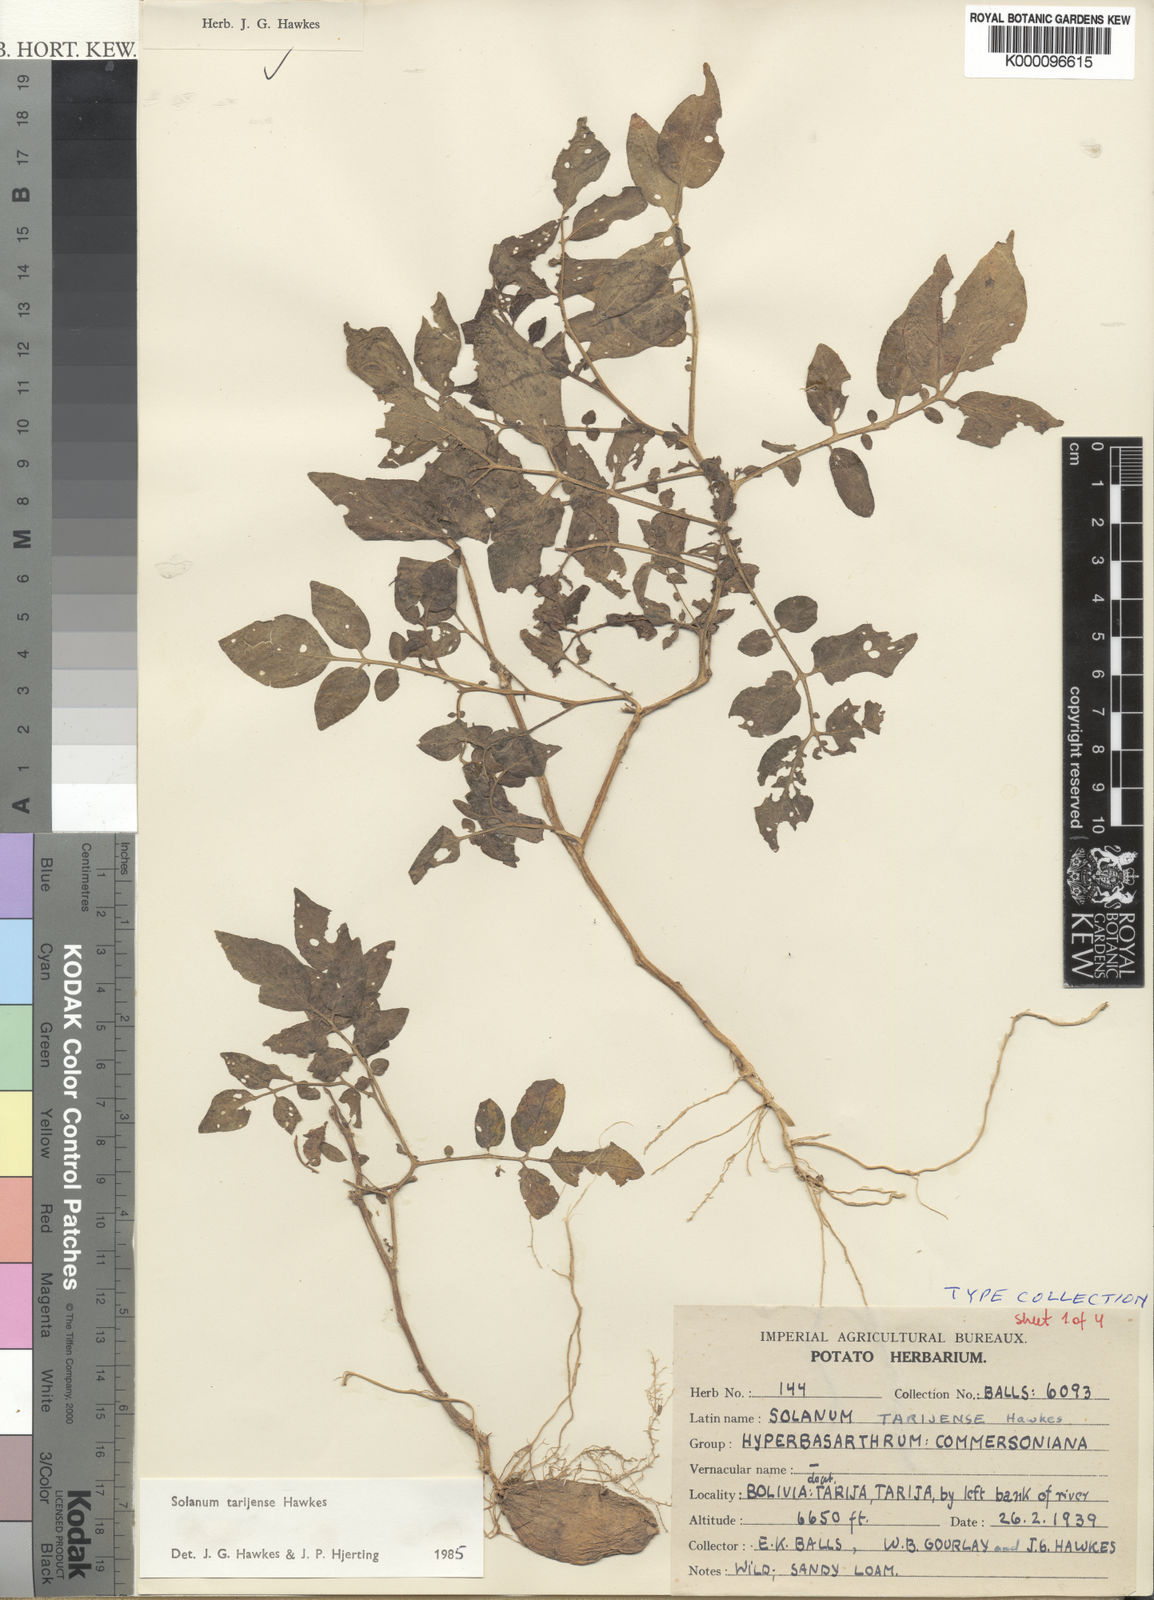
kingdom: Plantae
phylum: Tracheophyta
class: Magnoliopsida
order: Solanales
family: Solanaceae
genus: Solanum
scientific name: Solanum tarijense
